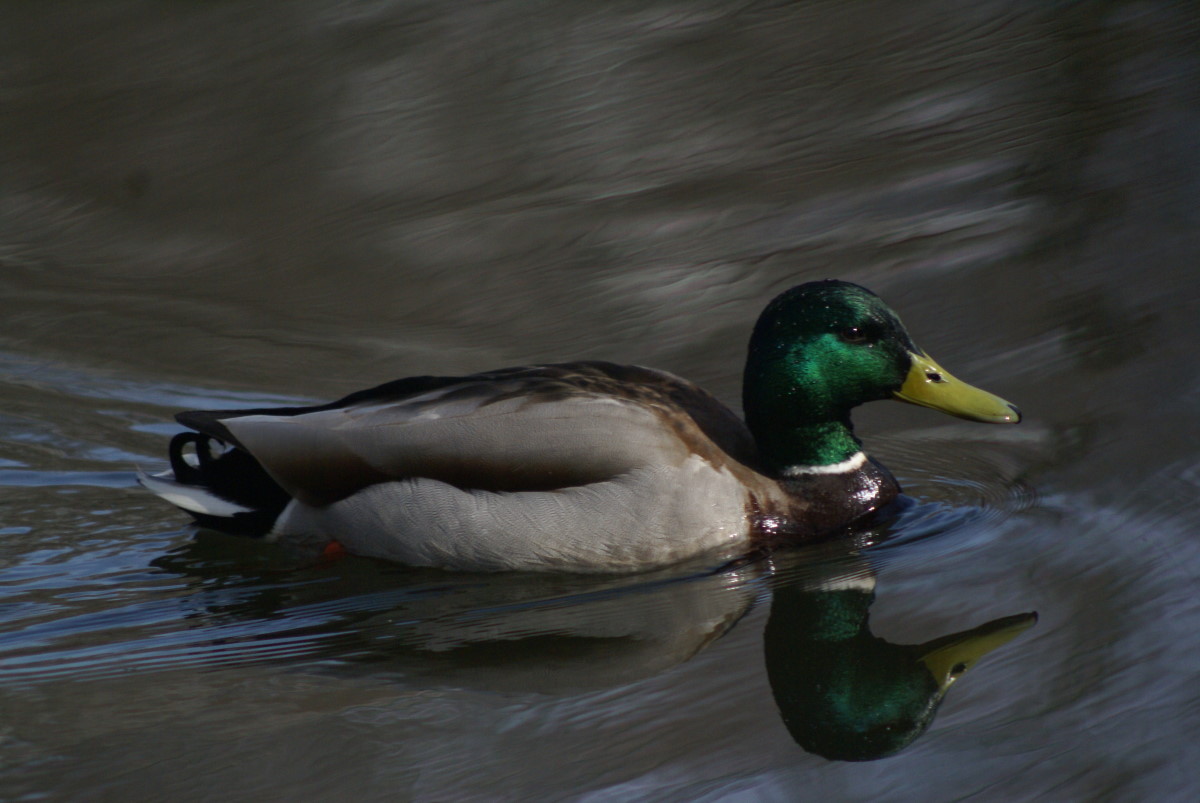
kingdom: Animalia
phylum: Chordata
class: Aves
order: Anseriformes
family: Anatidae
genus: Anas
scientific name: Anas platyrhynchos
